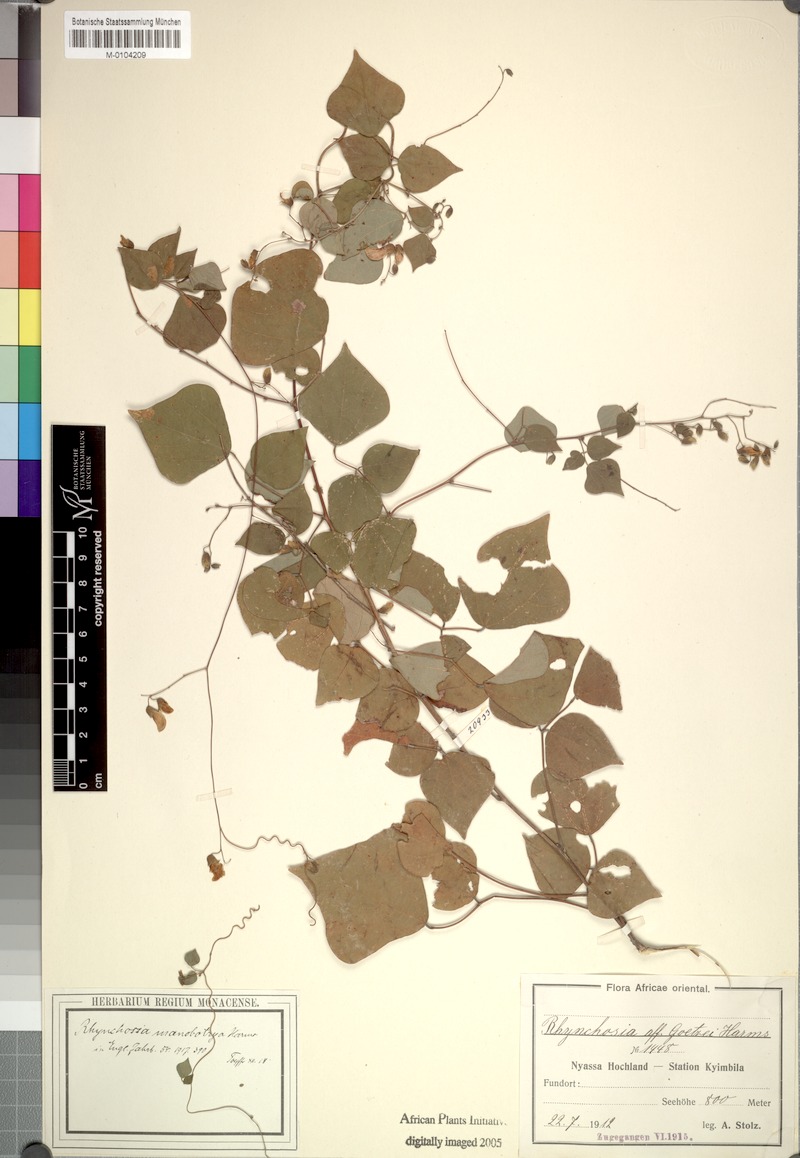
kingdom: Plantae
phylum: Tracheophyta
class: Magnoliopsida
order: Fabales
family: Fabaceae
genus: Rhynchosia
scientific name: Rhynchosia minima
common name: Least snoutbean
